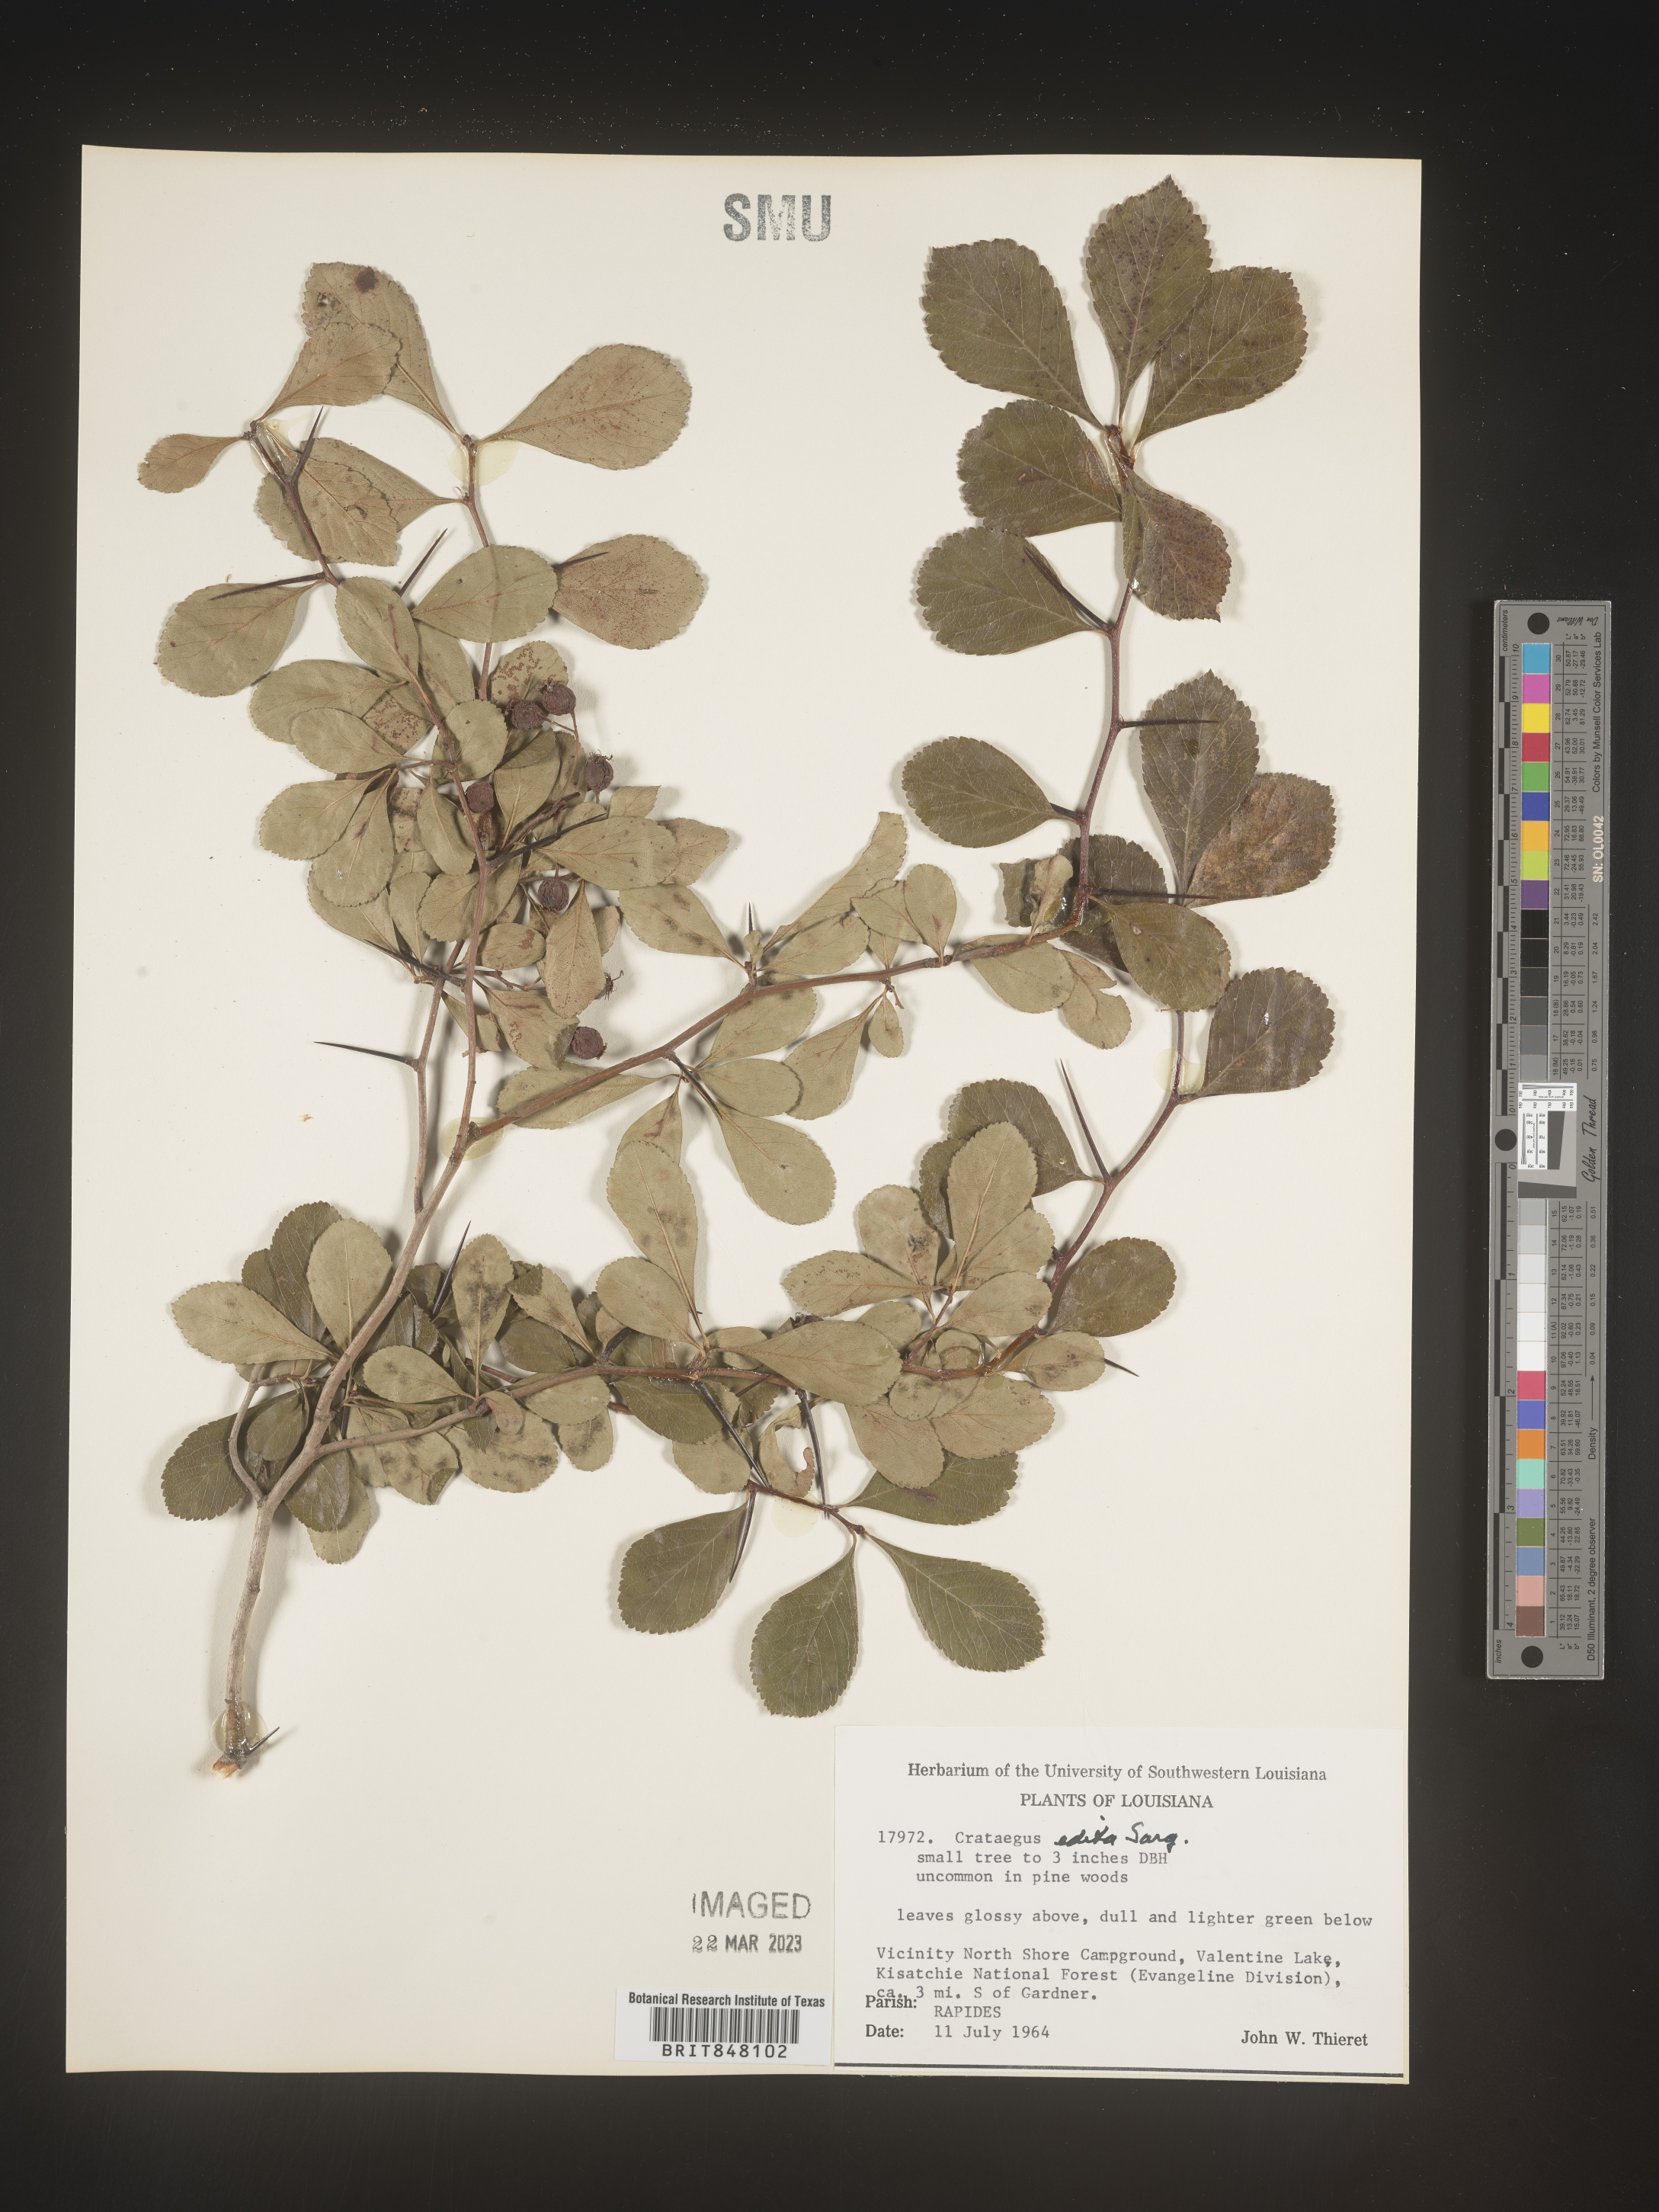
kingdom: Plantae
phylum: Tracheophyta
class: Magnoliopsida
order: Rosales
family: Rosaceae
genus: Crataegus
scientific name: Crataegus berberifolia
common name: Barberry hawthorn
